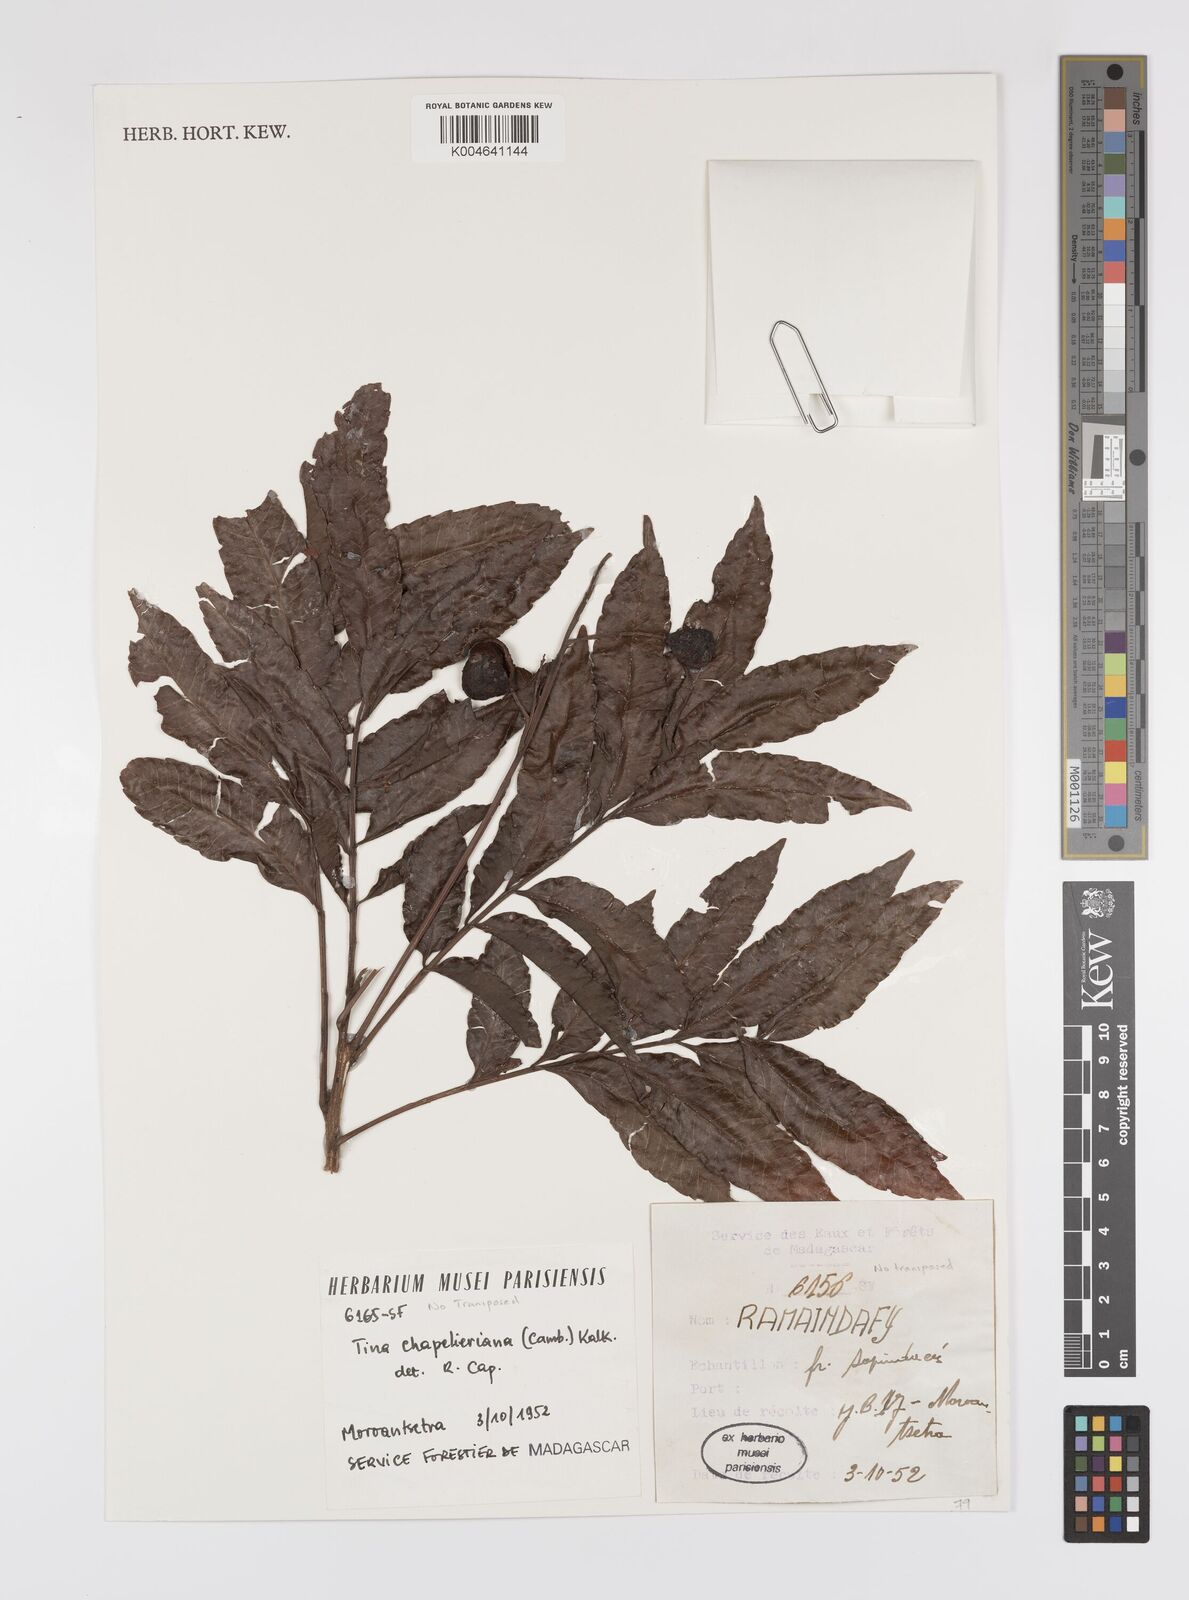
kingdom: Plantae
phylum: Tracheophyta
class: Magnoliopsida
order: Sapindales
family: Sapindaceae
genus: Tina
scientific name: Tina chapelieriana
